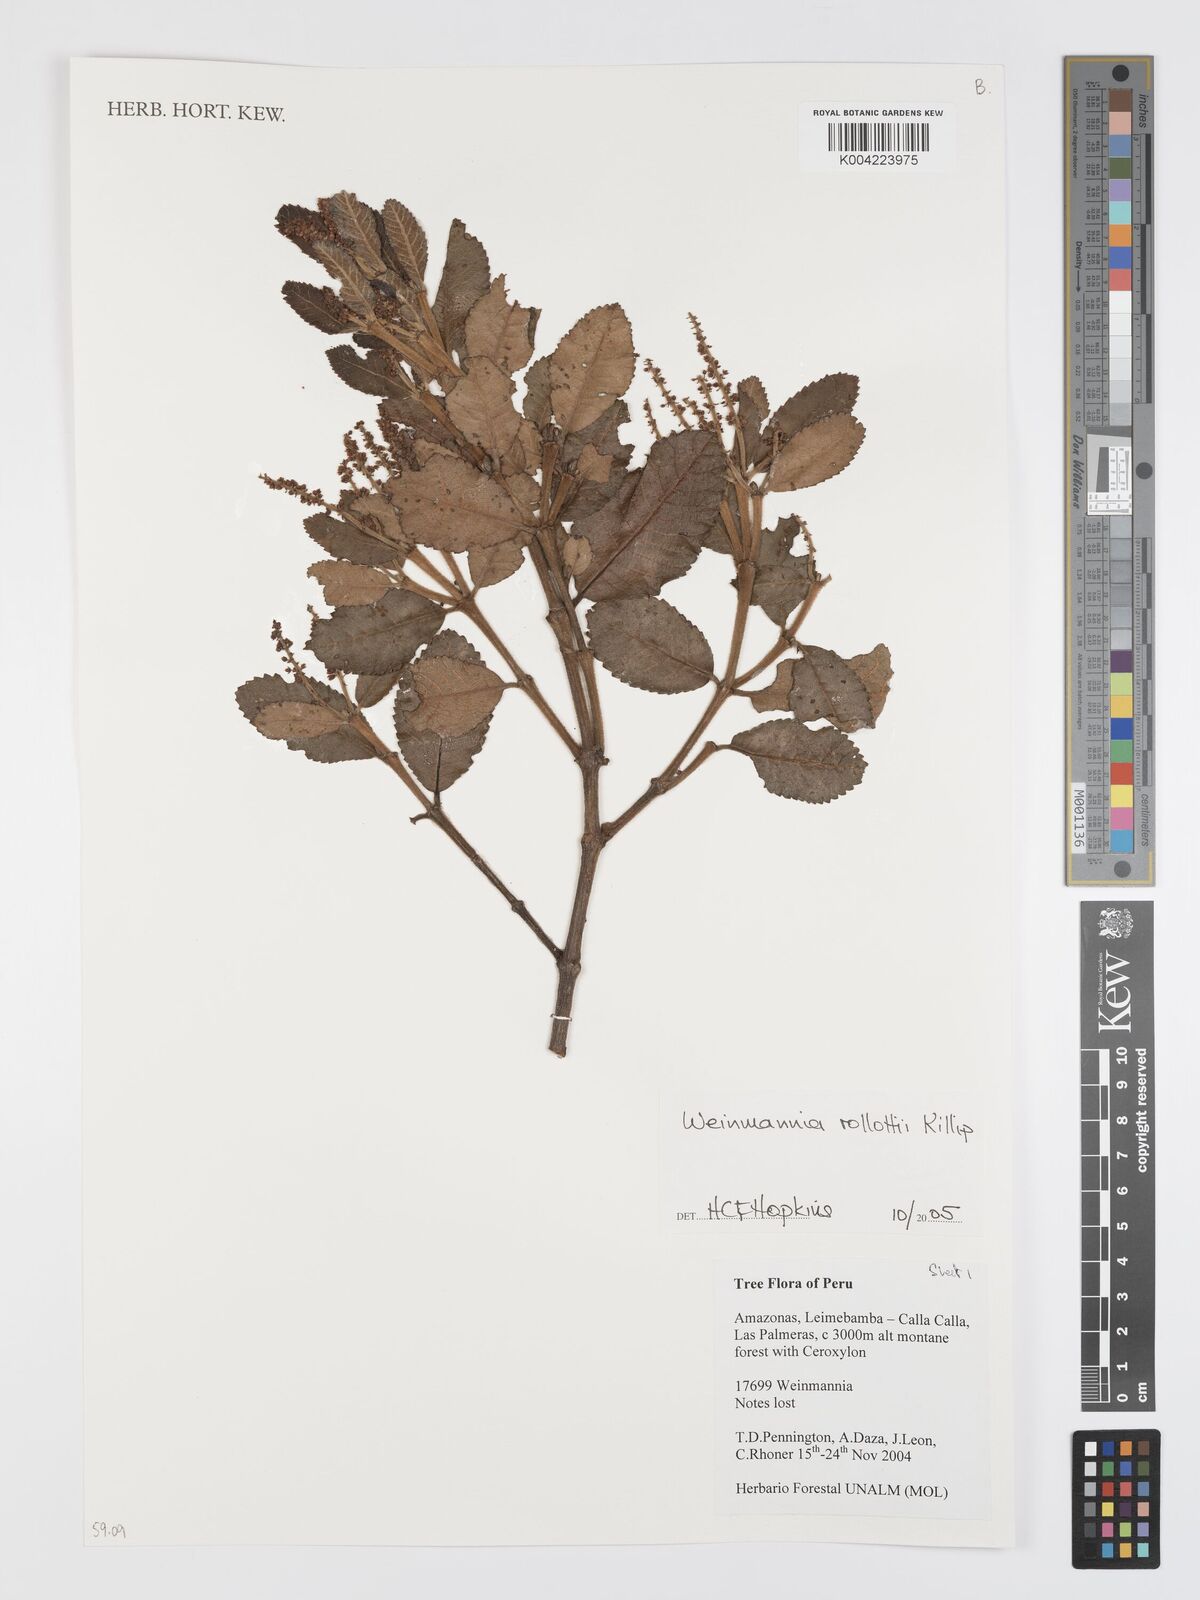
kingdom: Plantae
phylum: Tracheophyta
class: Magnoliopsida
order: Oxalidales
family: Cunoniaceae
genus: Weinmannia
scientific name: Weinmannia rollottii
